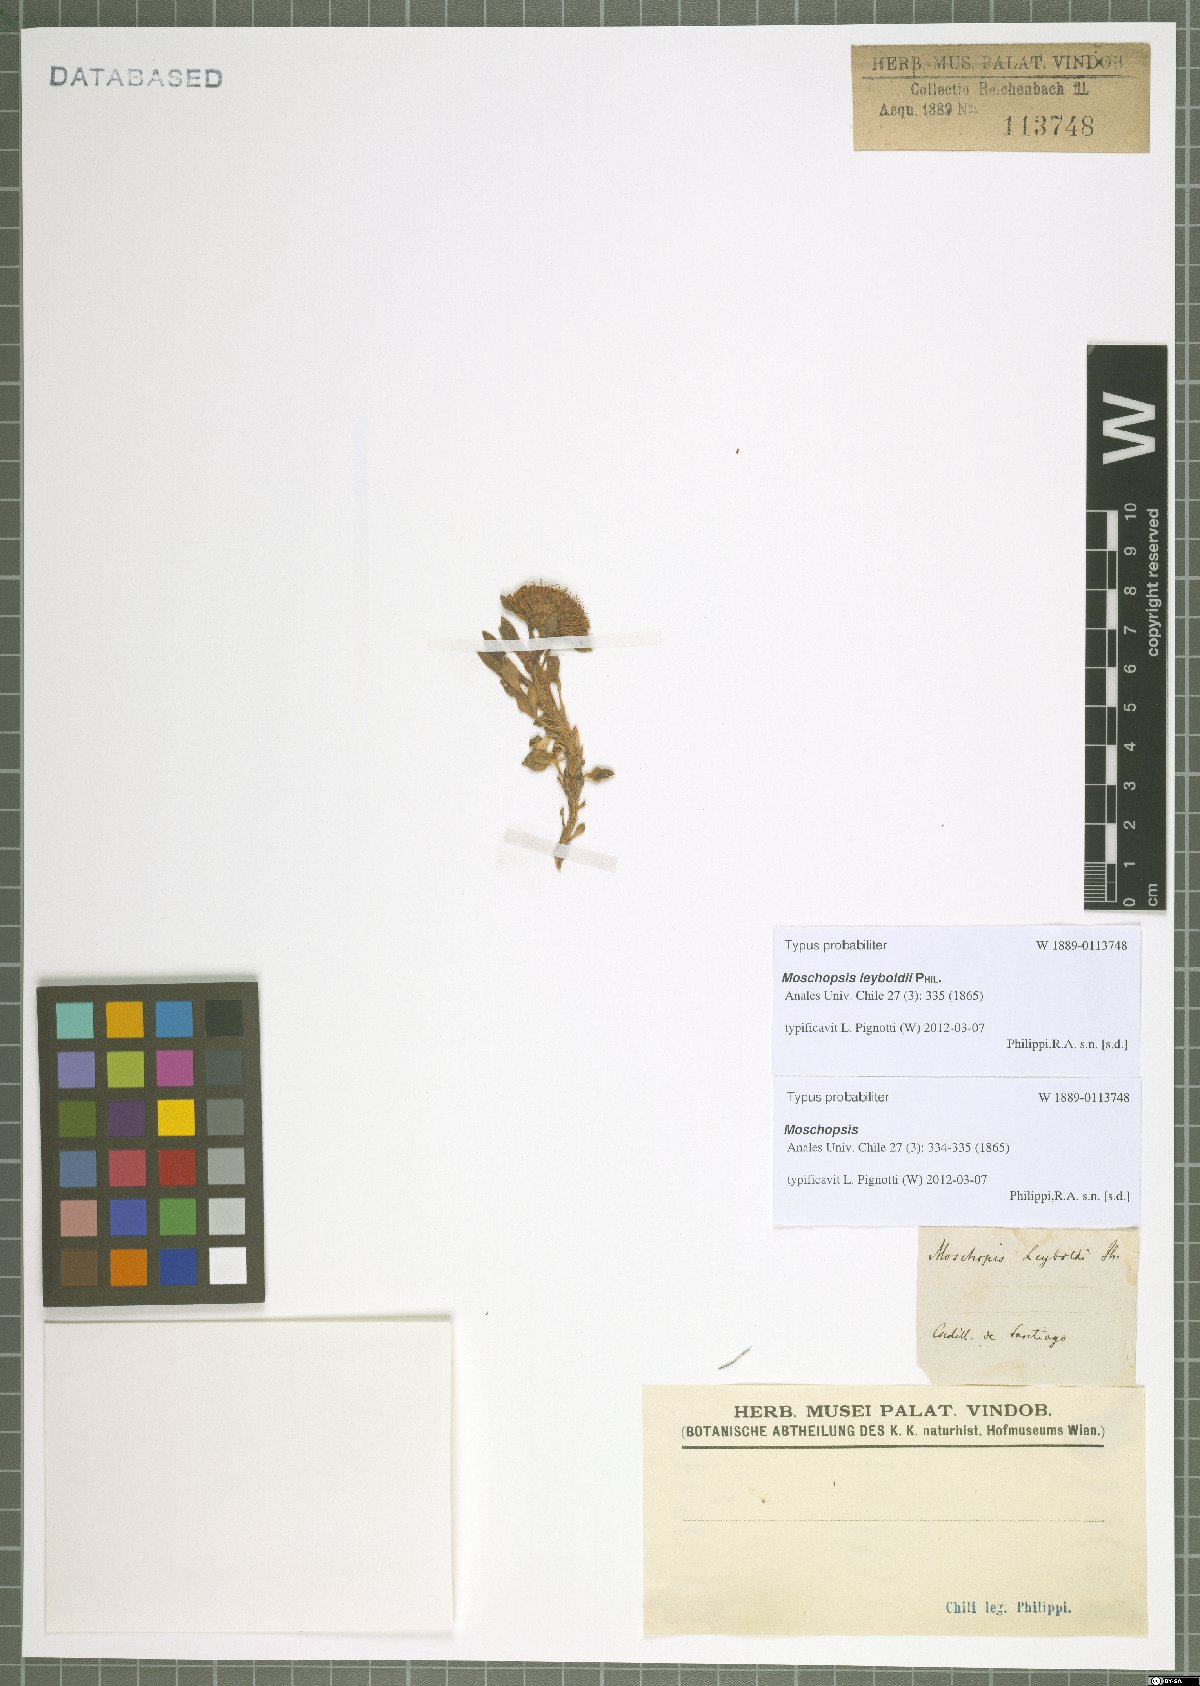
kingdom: Plantae
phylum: Tracheophyta
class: Magnoliopsida
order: Asterales
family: Calyceraceae
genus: Moschopsis
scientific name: Moschopsis leyboldii
